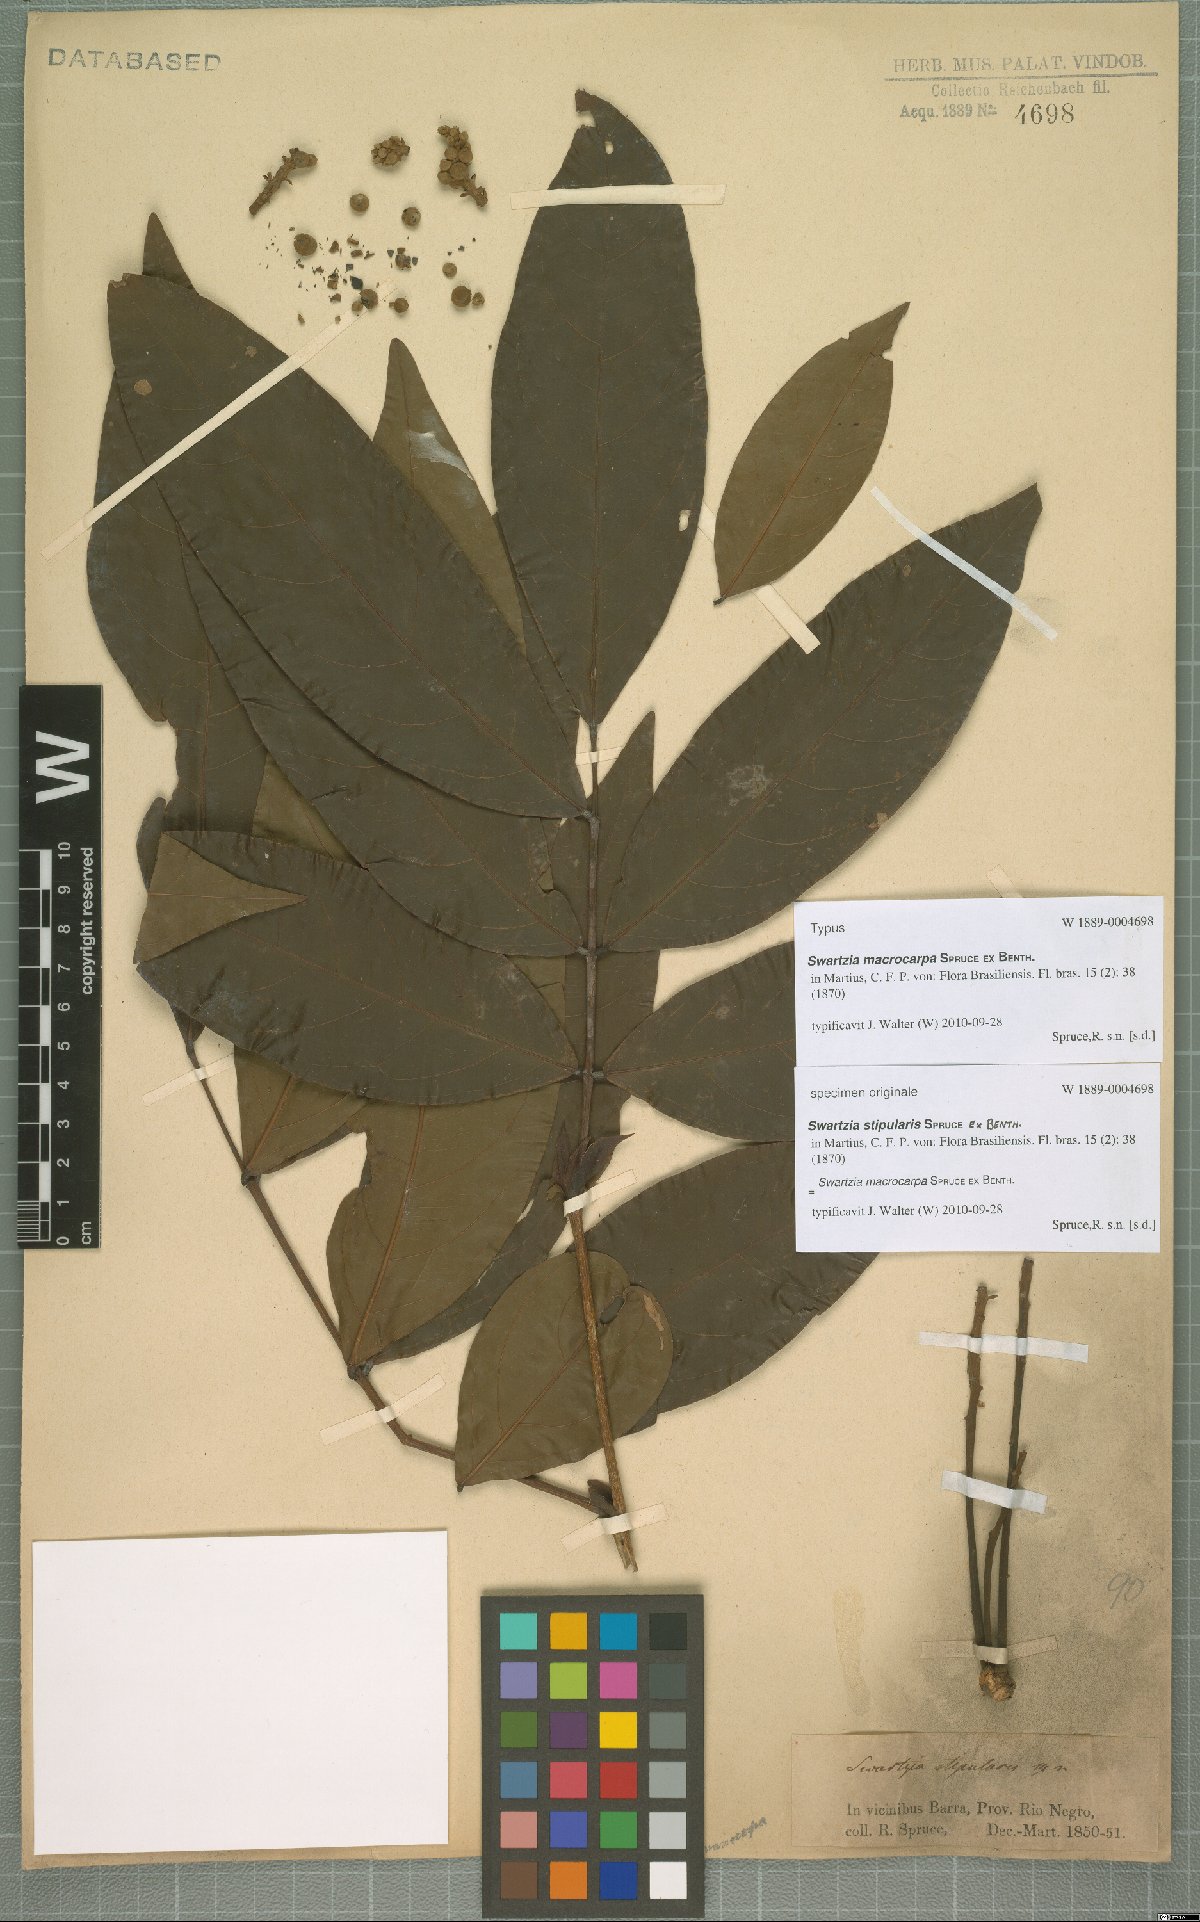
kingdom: Plantae
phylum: Tracheophyta
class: Magnoliopsida
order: Fabales
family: Fabaceae
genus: Swartzia
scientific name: Swartzia macrocarpa
